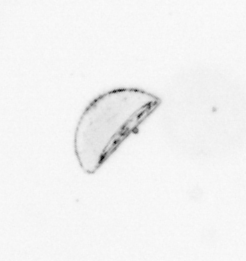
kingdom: Chromista
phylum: Ochrophyta
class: Bacillariophyceae
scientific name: Bacillariophyceae
